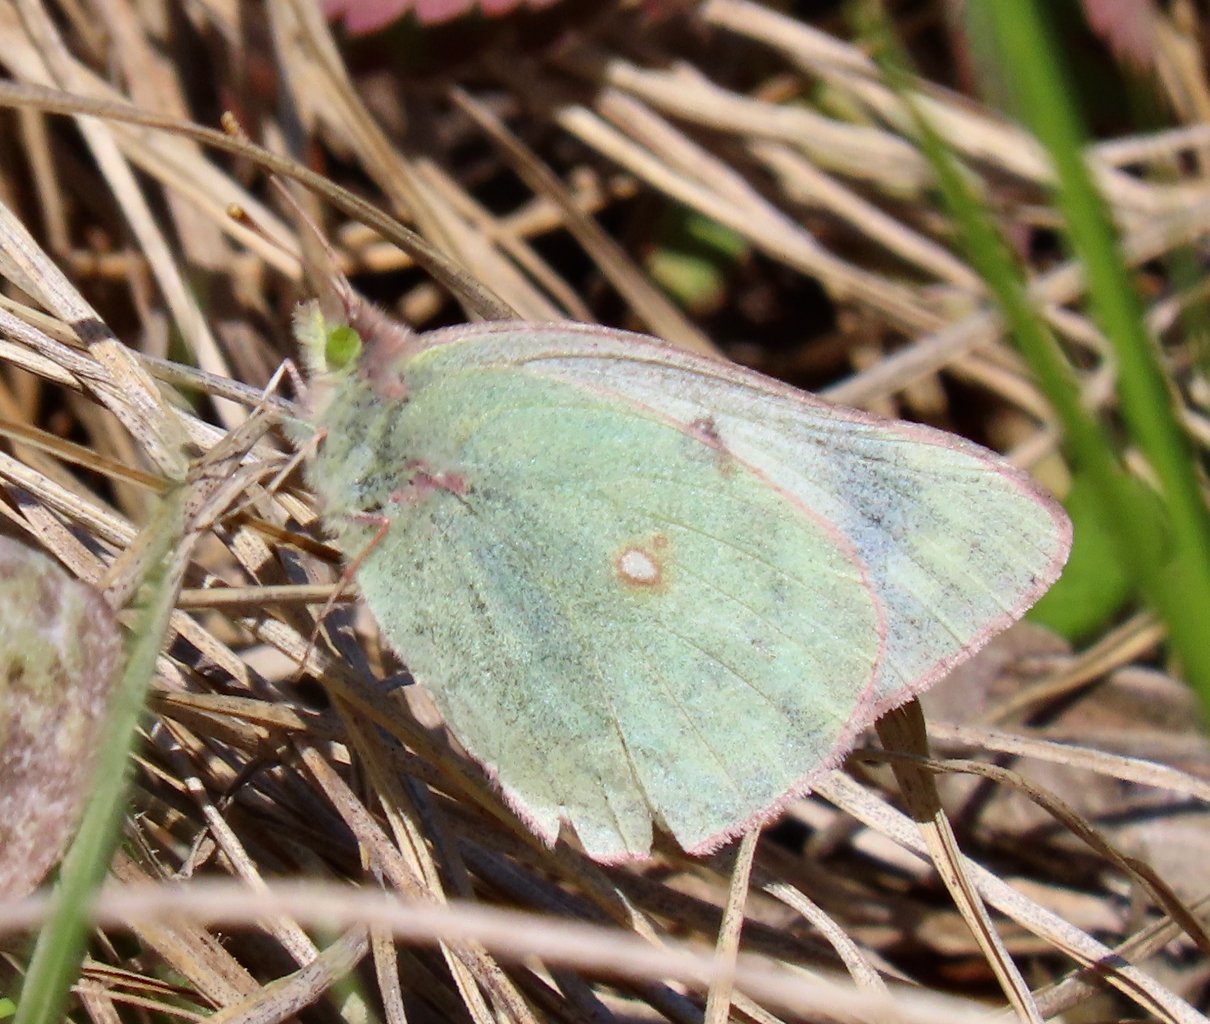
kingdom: Animalia
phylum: Arthropoda
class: Insecta
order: Lepidoptera
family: Pieridae
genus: Colias
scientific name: Colias philodice
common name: Clouded Sulphur
